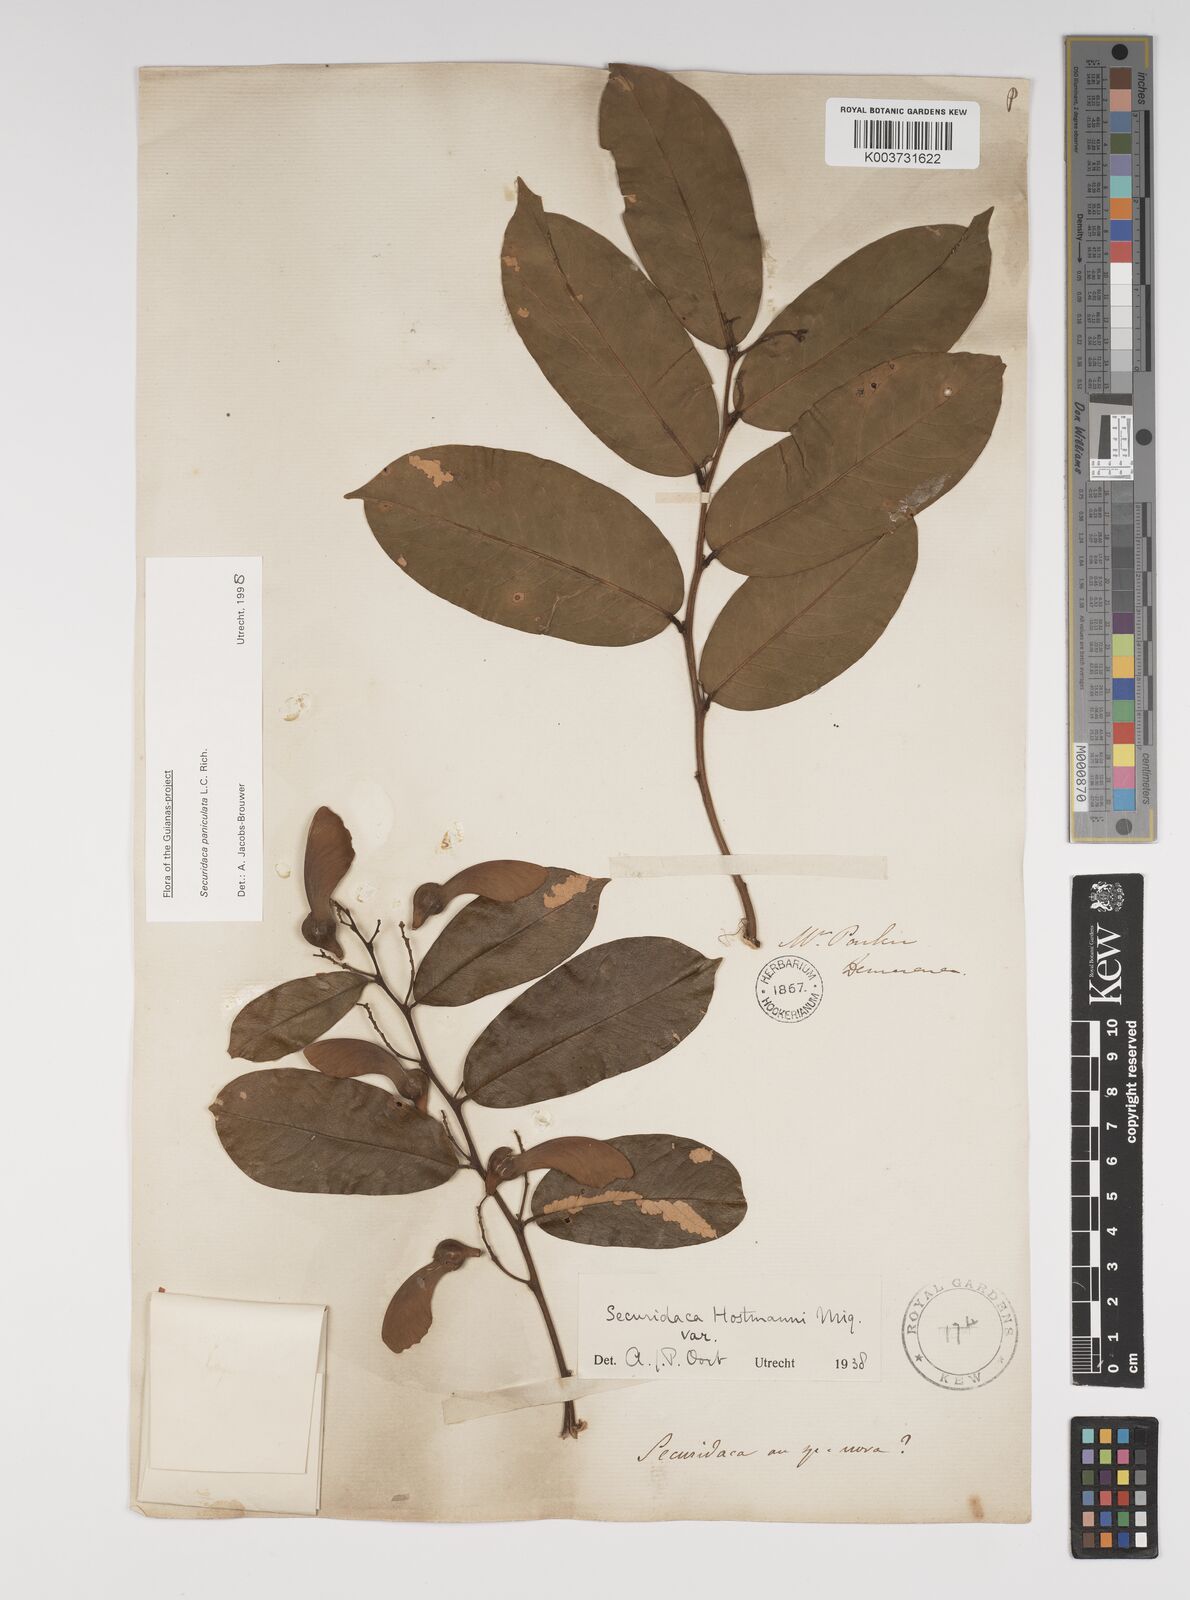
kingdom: Plantae
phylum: Tracheophyta
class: Magnoliopsida
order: Fabales
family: Polygalaceae
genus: Securidaca
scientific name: Securidaca paniculata
